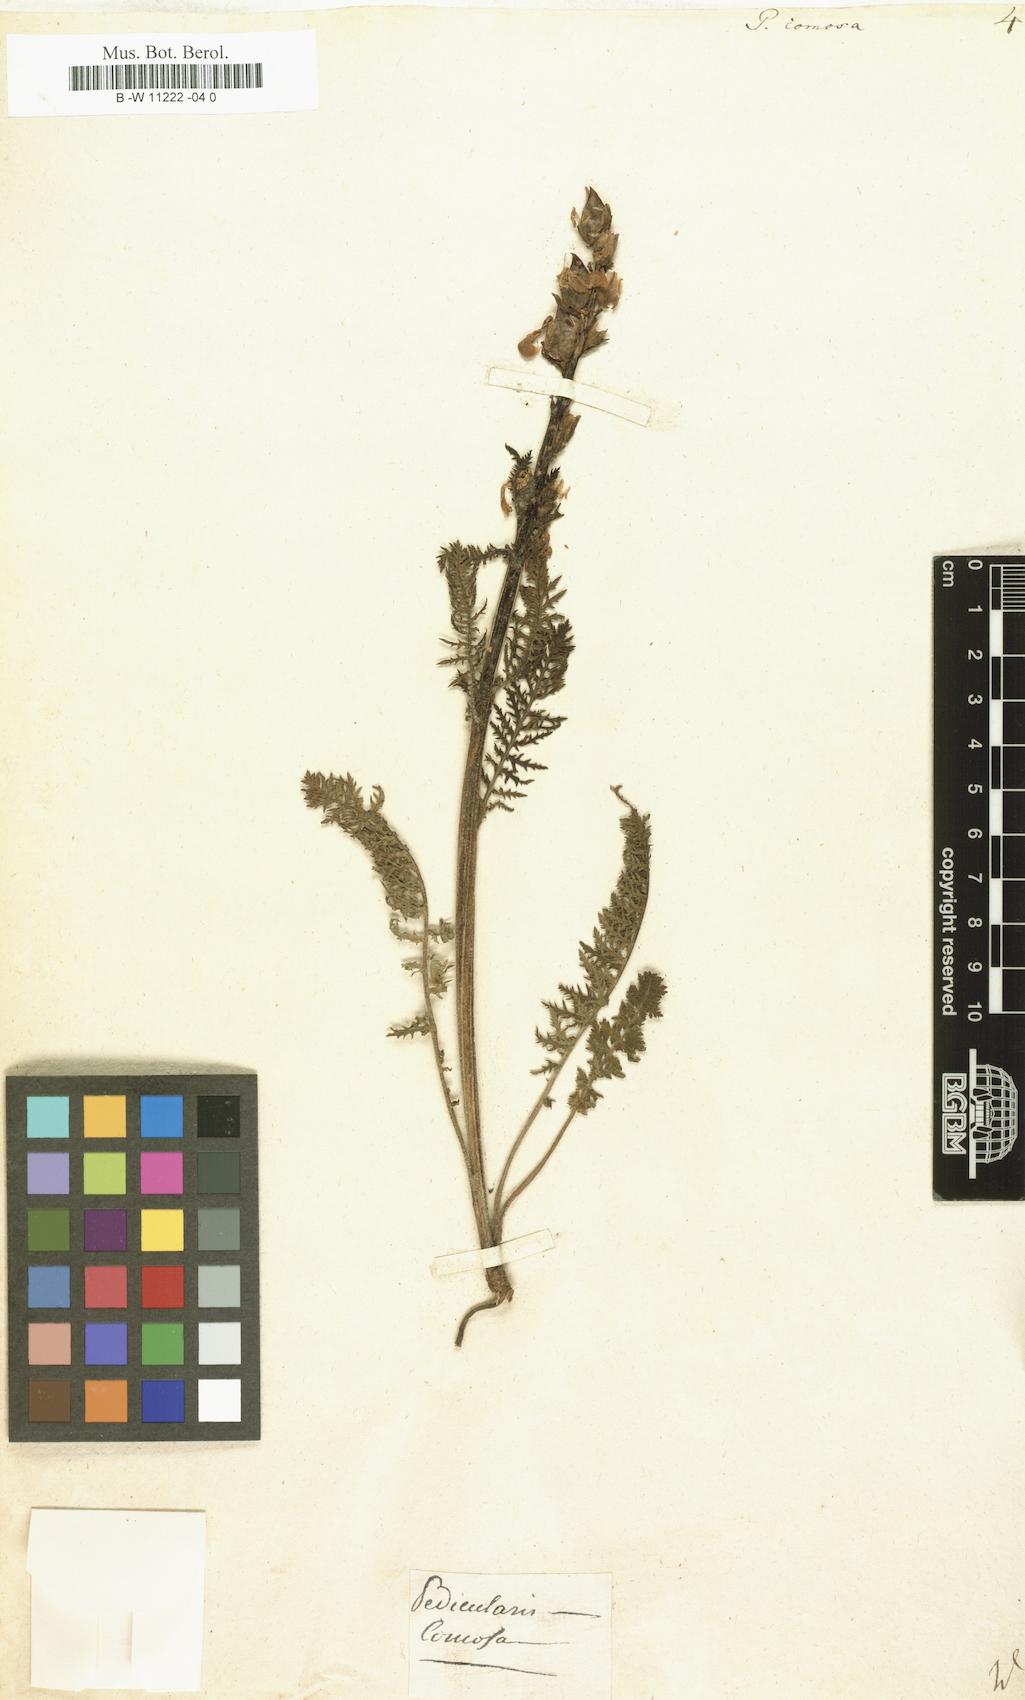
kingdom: Plantae
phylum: Tracheophyta
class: Magnoliopsida
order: Lamiales
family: Orobanchaceae
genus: Pedicularis
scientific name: Pedicularis comosa
